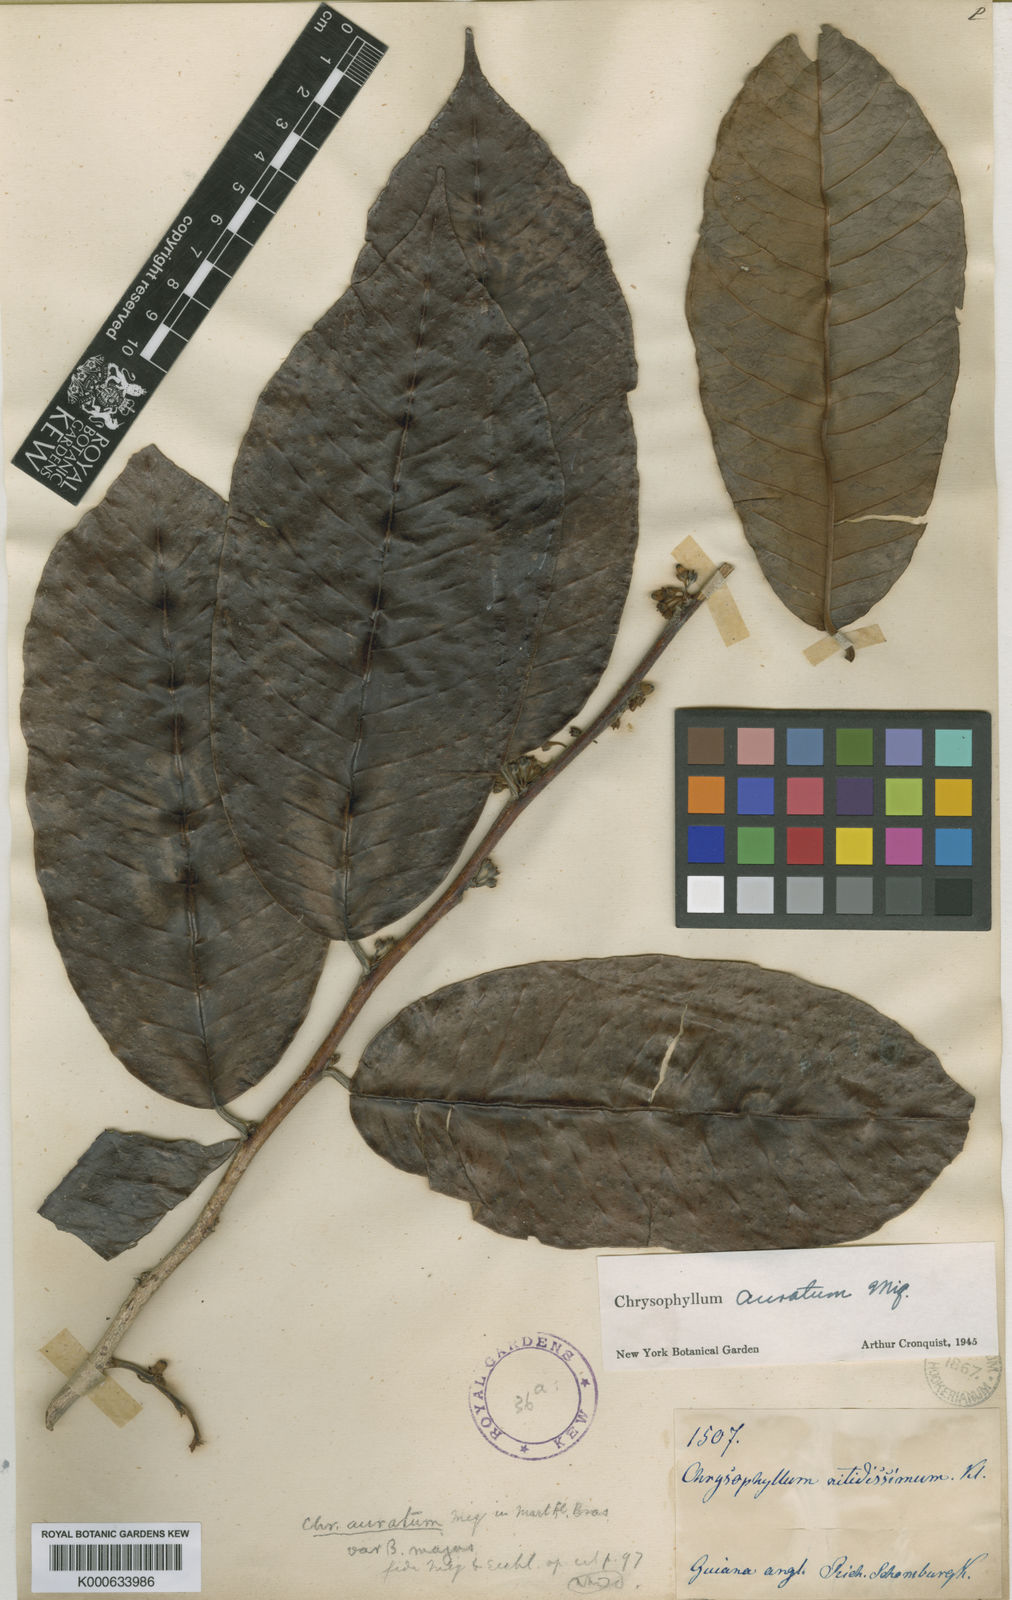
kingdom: Plantae
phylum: Tracheophyta
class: Magnoliopsida
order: Ericales
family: Sapotaceae
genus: Chrysophyllum
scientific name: Chrysophyllum argenteum
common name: Smooth star apple
